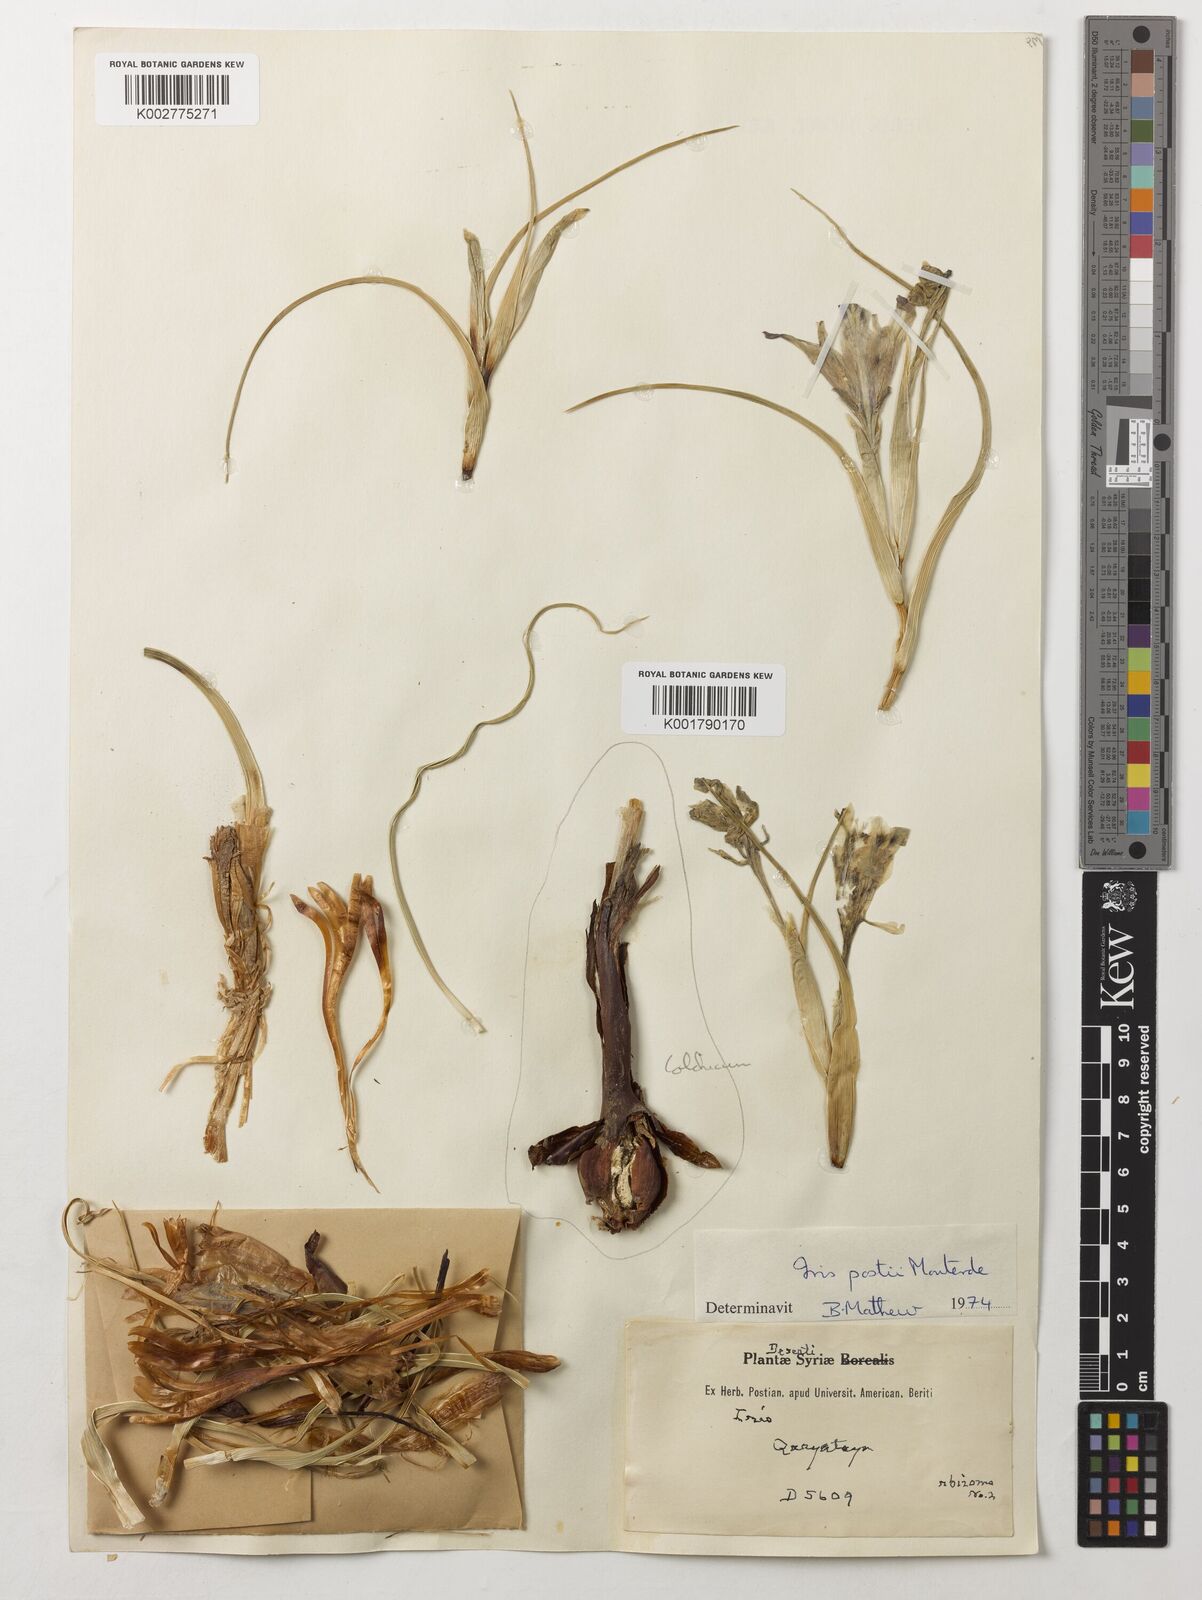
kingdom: Plantae
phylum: Tracheophyta
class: Liliopsida
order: Asparagales
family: Iridaceae
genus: Iris
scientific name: Iris postii
